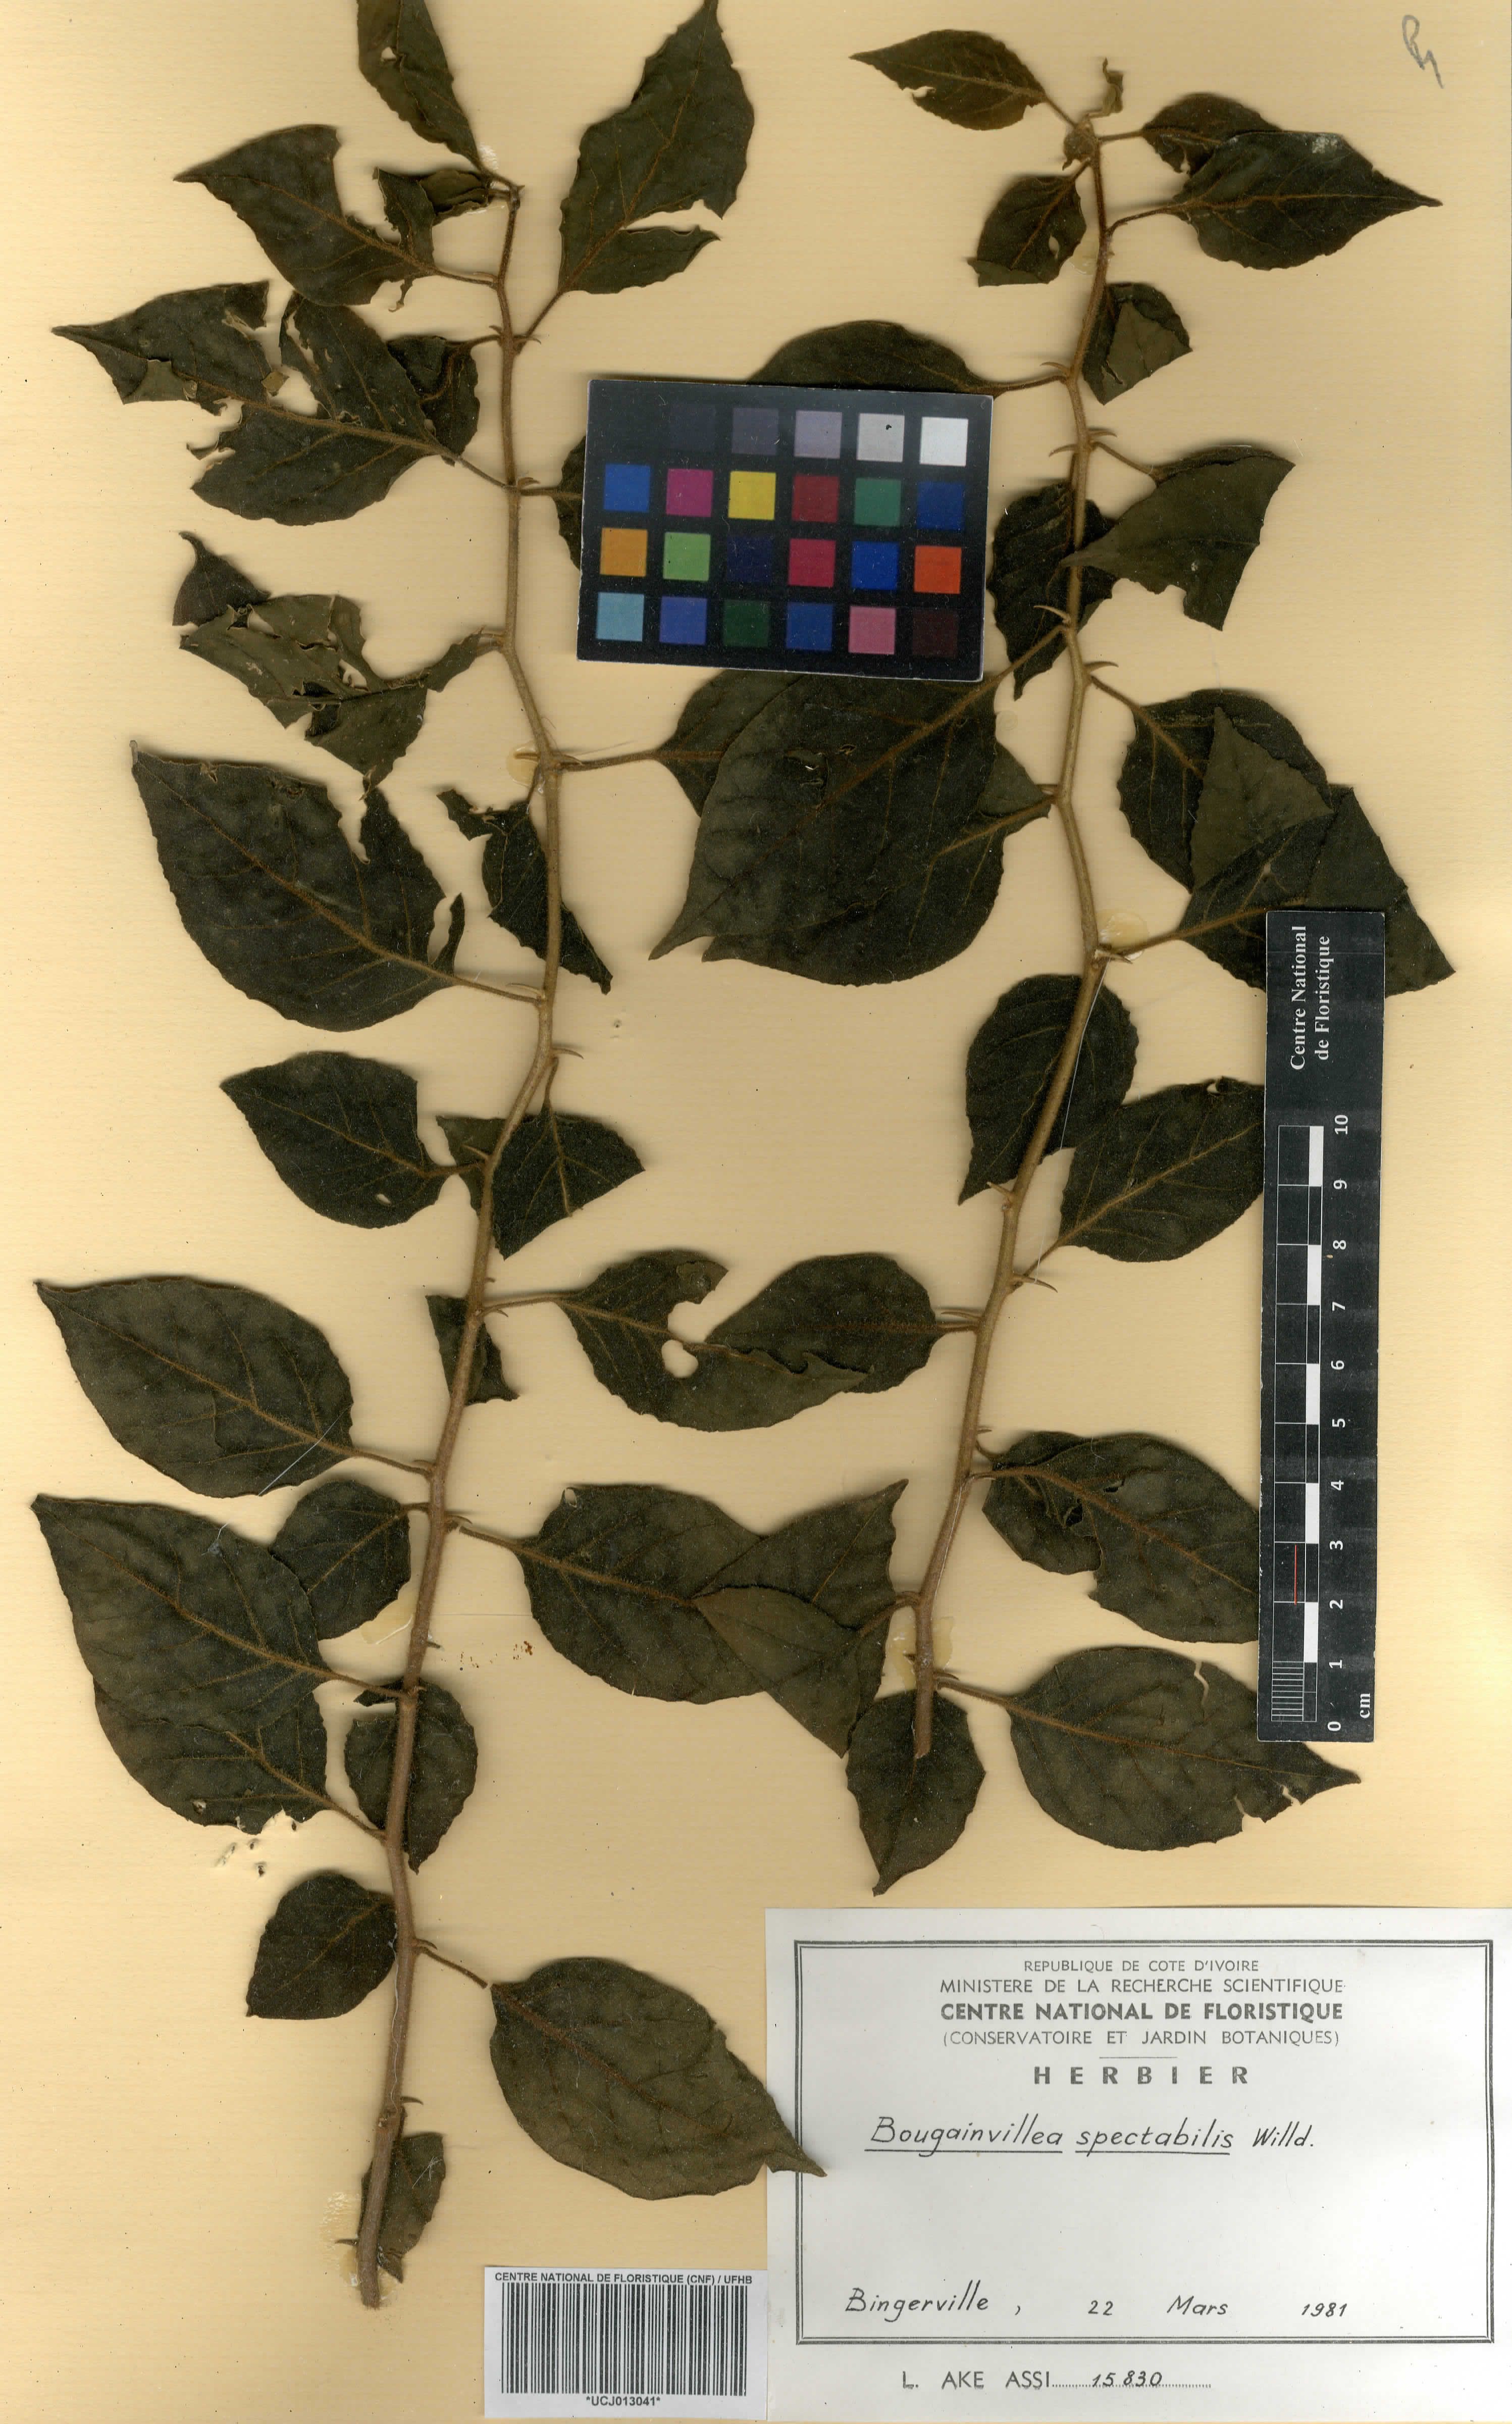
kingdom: Plantae
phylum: Tracheophyta
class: Magnoliopsida
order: Caryophyllales
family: Nyctaginaceae
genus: Bougainvillea
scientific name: Bougainvillea spectabilis
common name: Great bougainvillea
